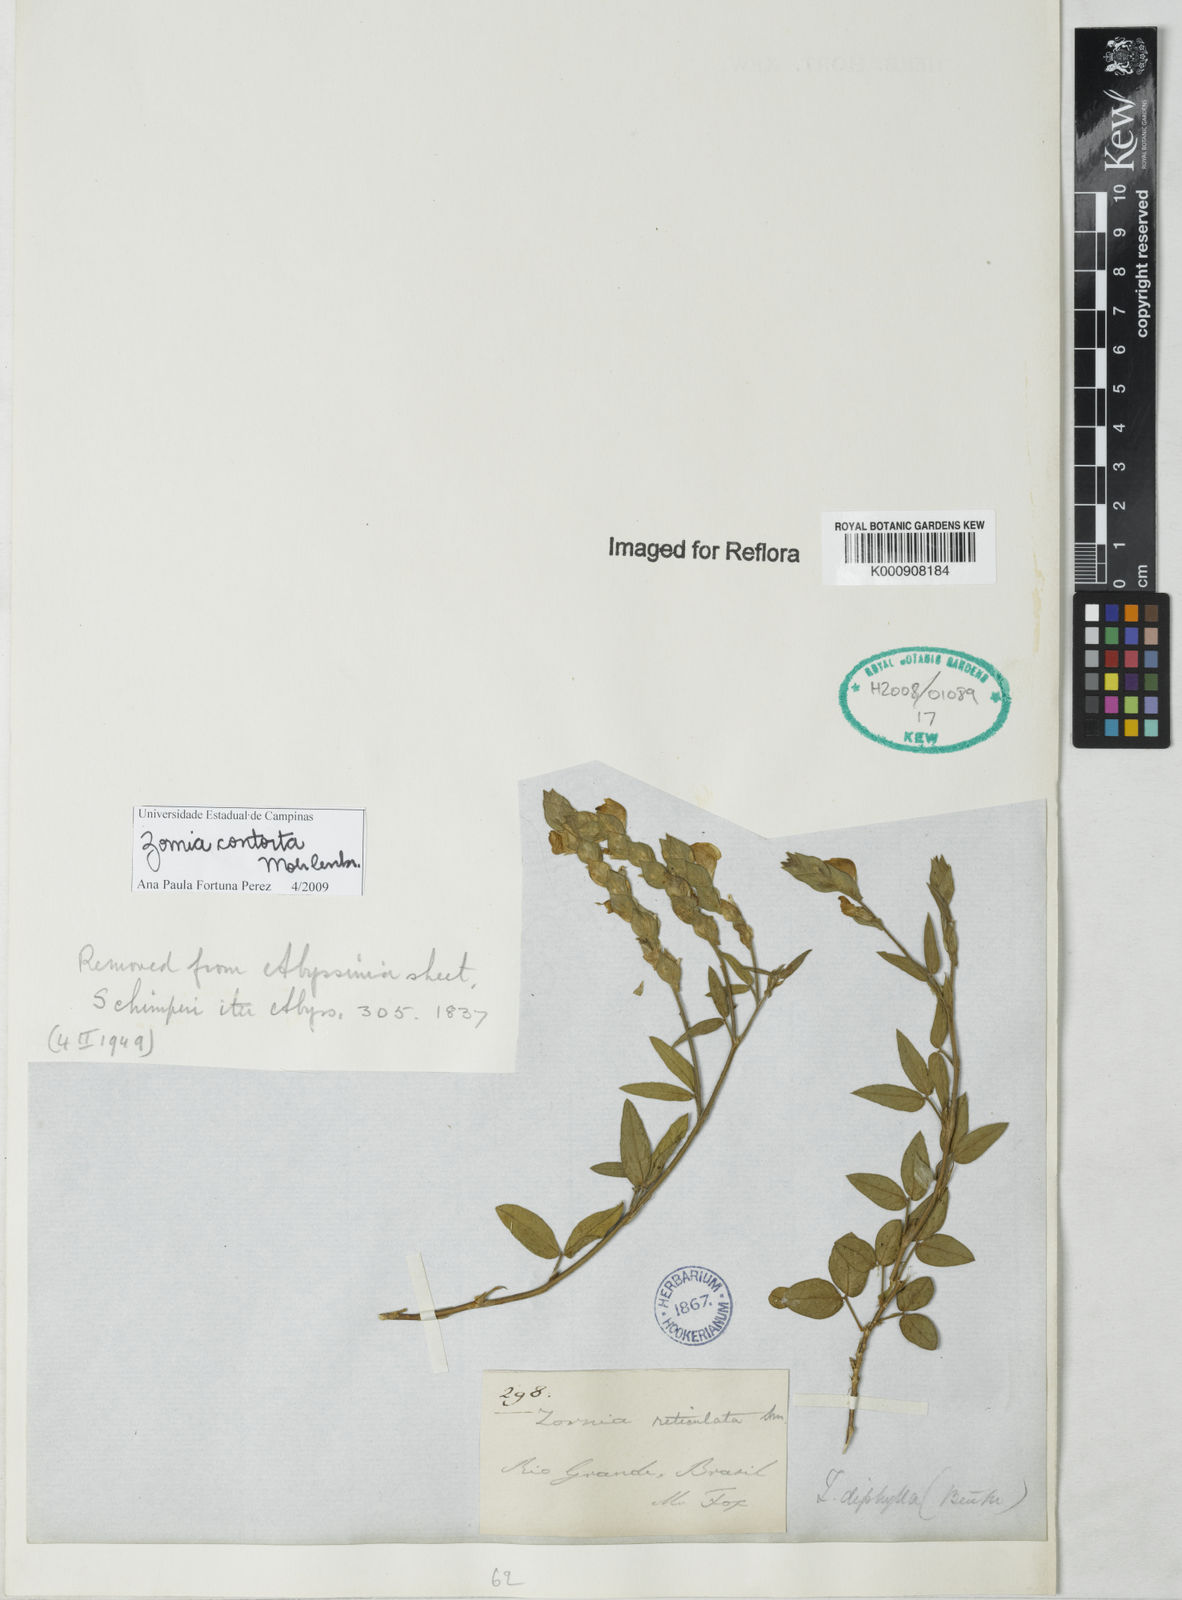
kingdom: Plantae
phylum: Tracheophyta
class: Magnoliopsida
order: Fabales
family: Fabaceae
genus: Zornia
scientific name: Zornia contorta
